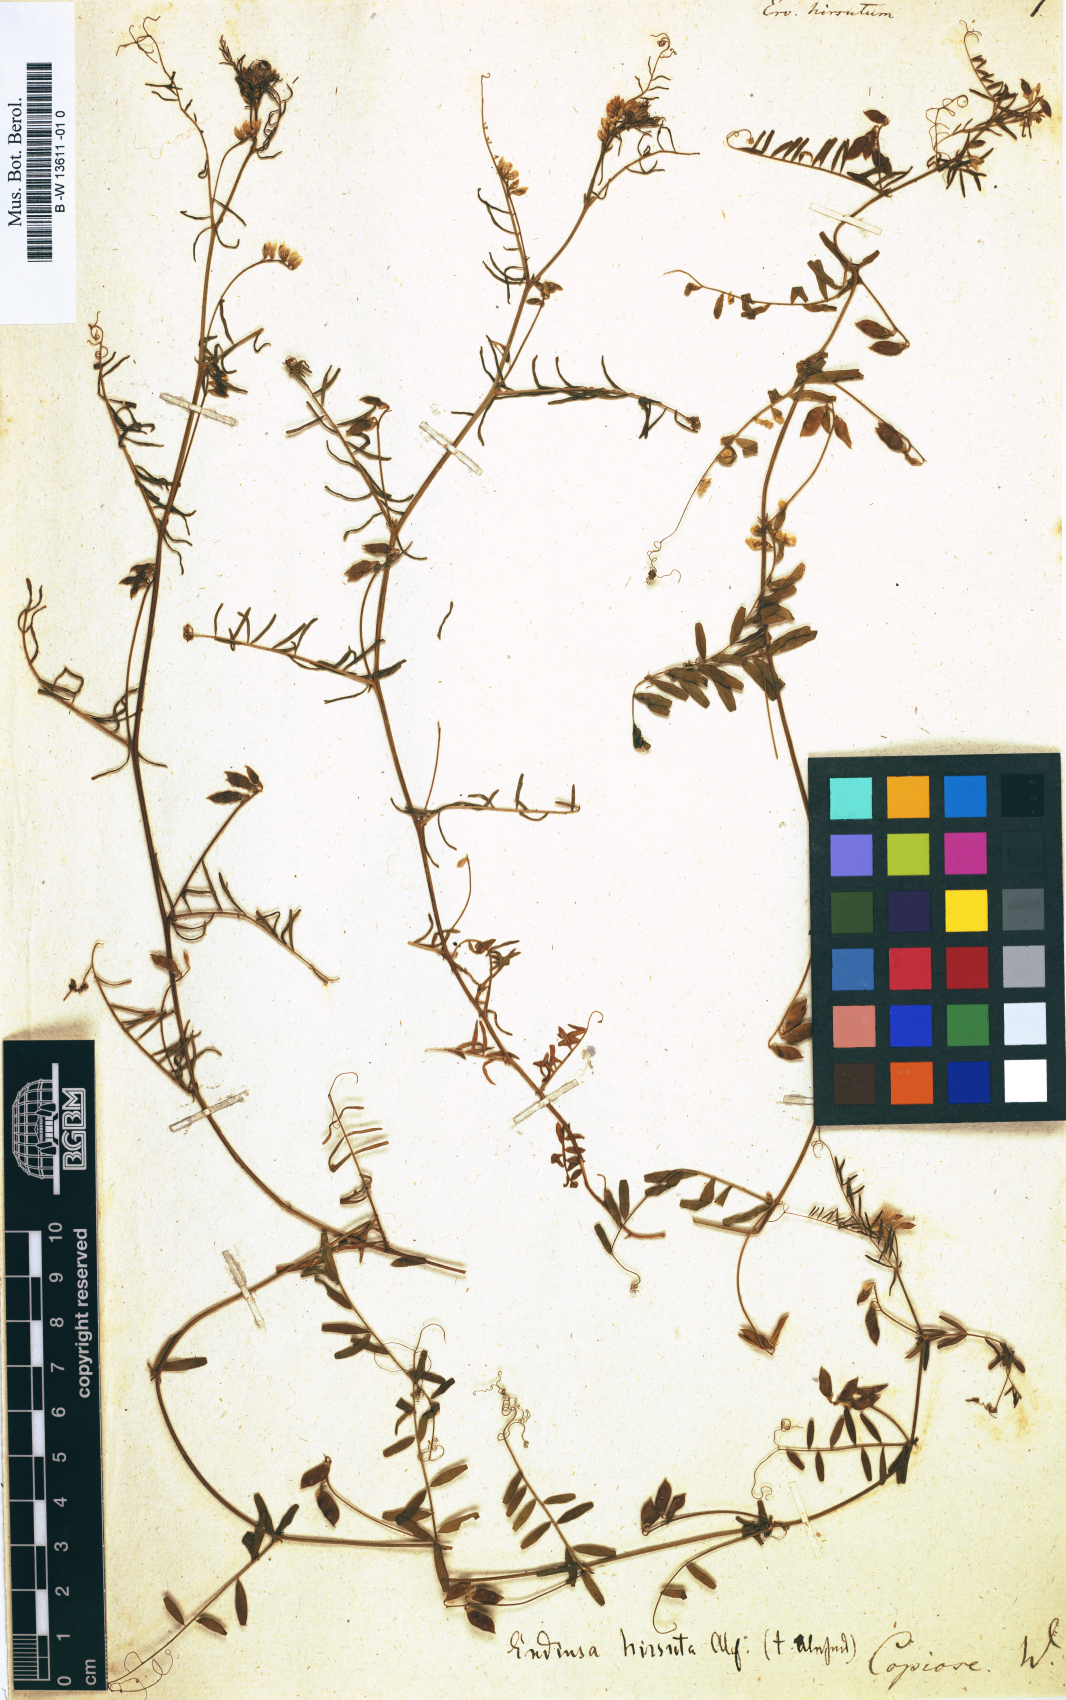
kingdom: Plantae
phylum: Tracheophyta
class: Magnoliopsida
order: Fabales
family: Fabaceae
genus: Vicia
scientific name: Vicia hirsuta
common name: Tiny vetch
